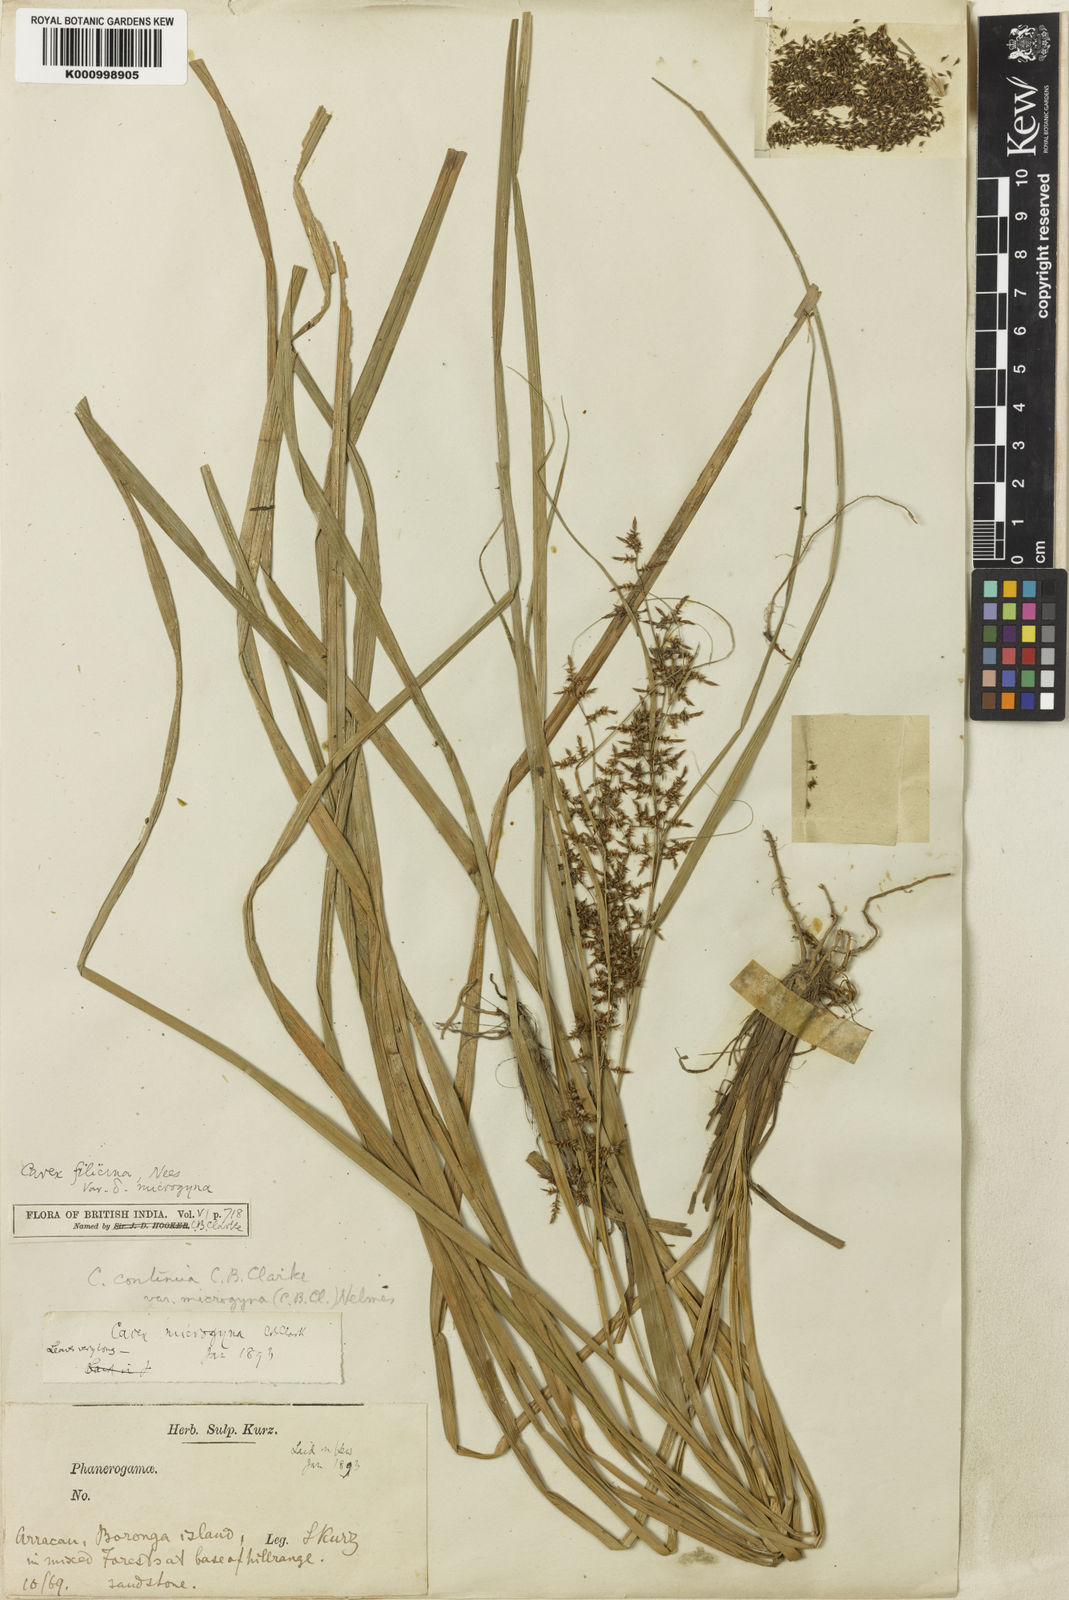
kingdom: Plantae
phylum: Tracheophyta
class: Liliopsida
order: Poales
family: Cyperaceae
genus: Carex
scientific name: Carex continua
